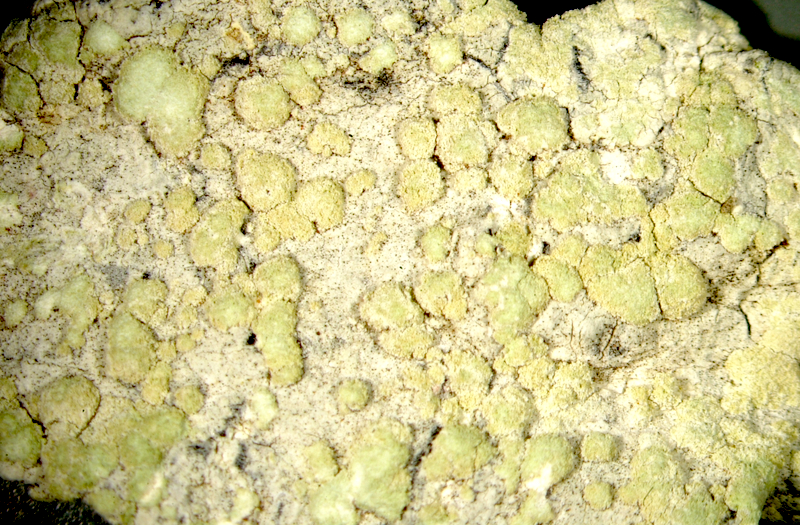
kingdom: Fungi
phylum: Ascomycota
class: Lecanoromycetes
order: Pertusariales
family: Ochrolechiaceae
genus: Ochrolechia
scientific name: Ochrolechia
